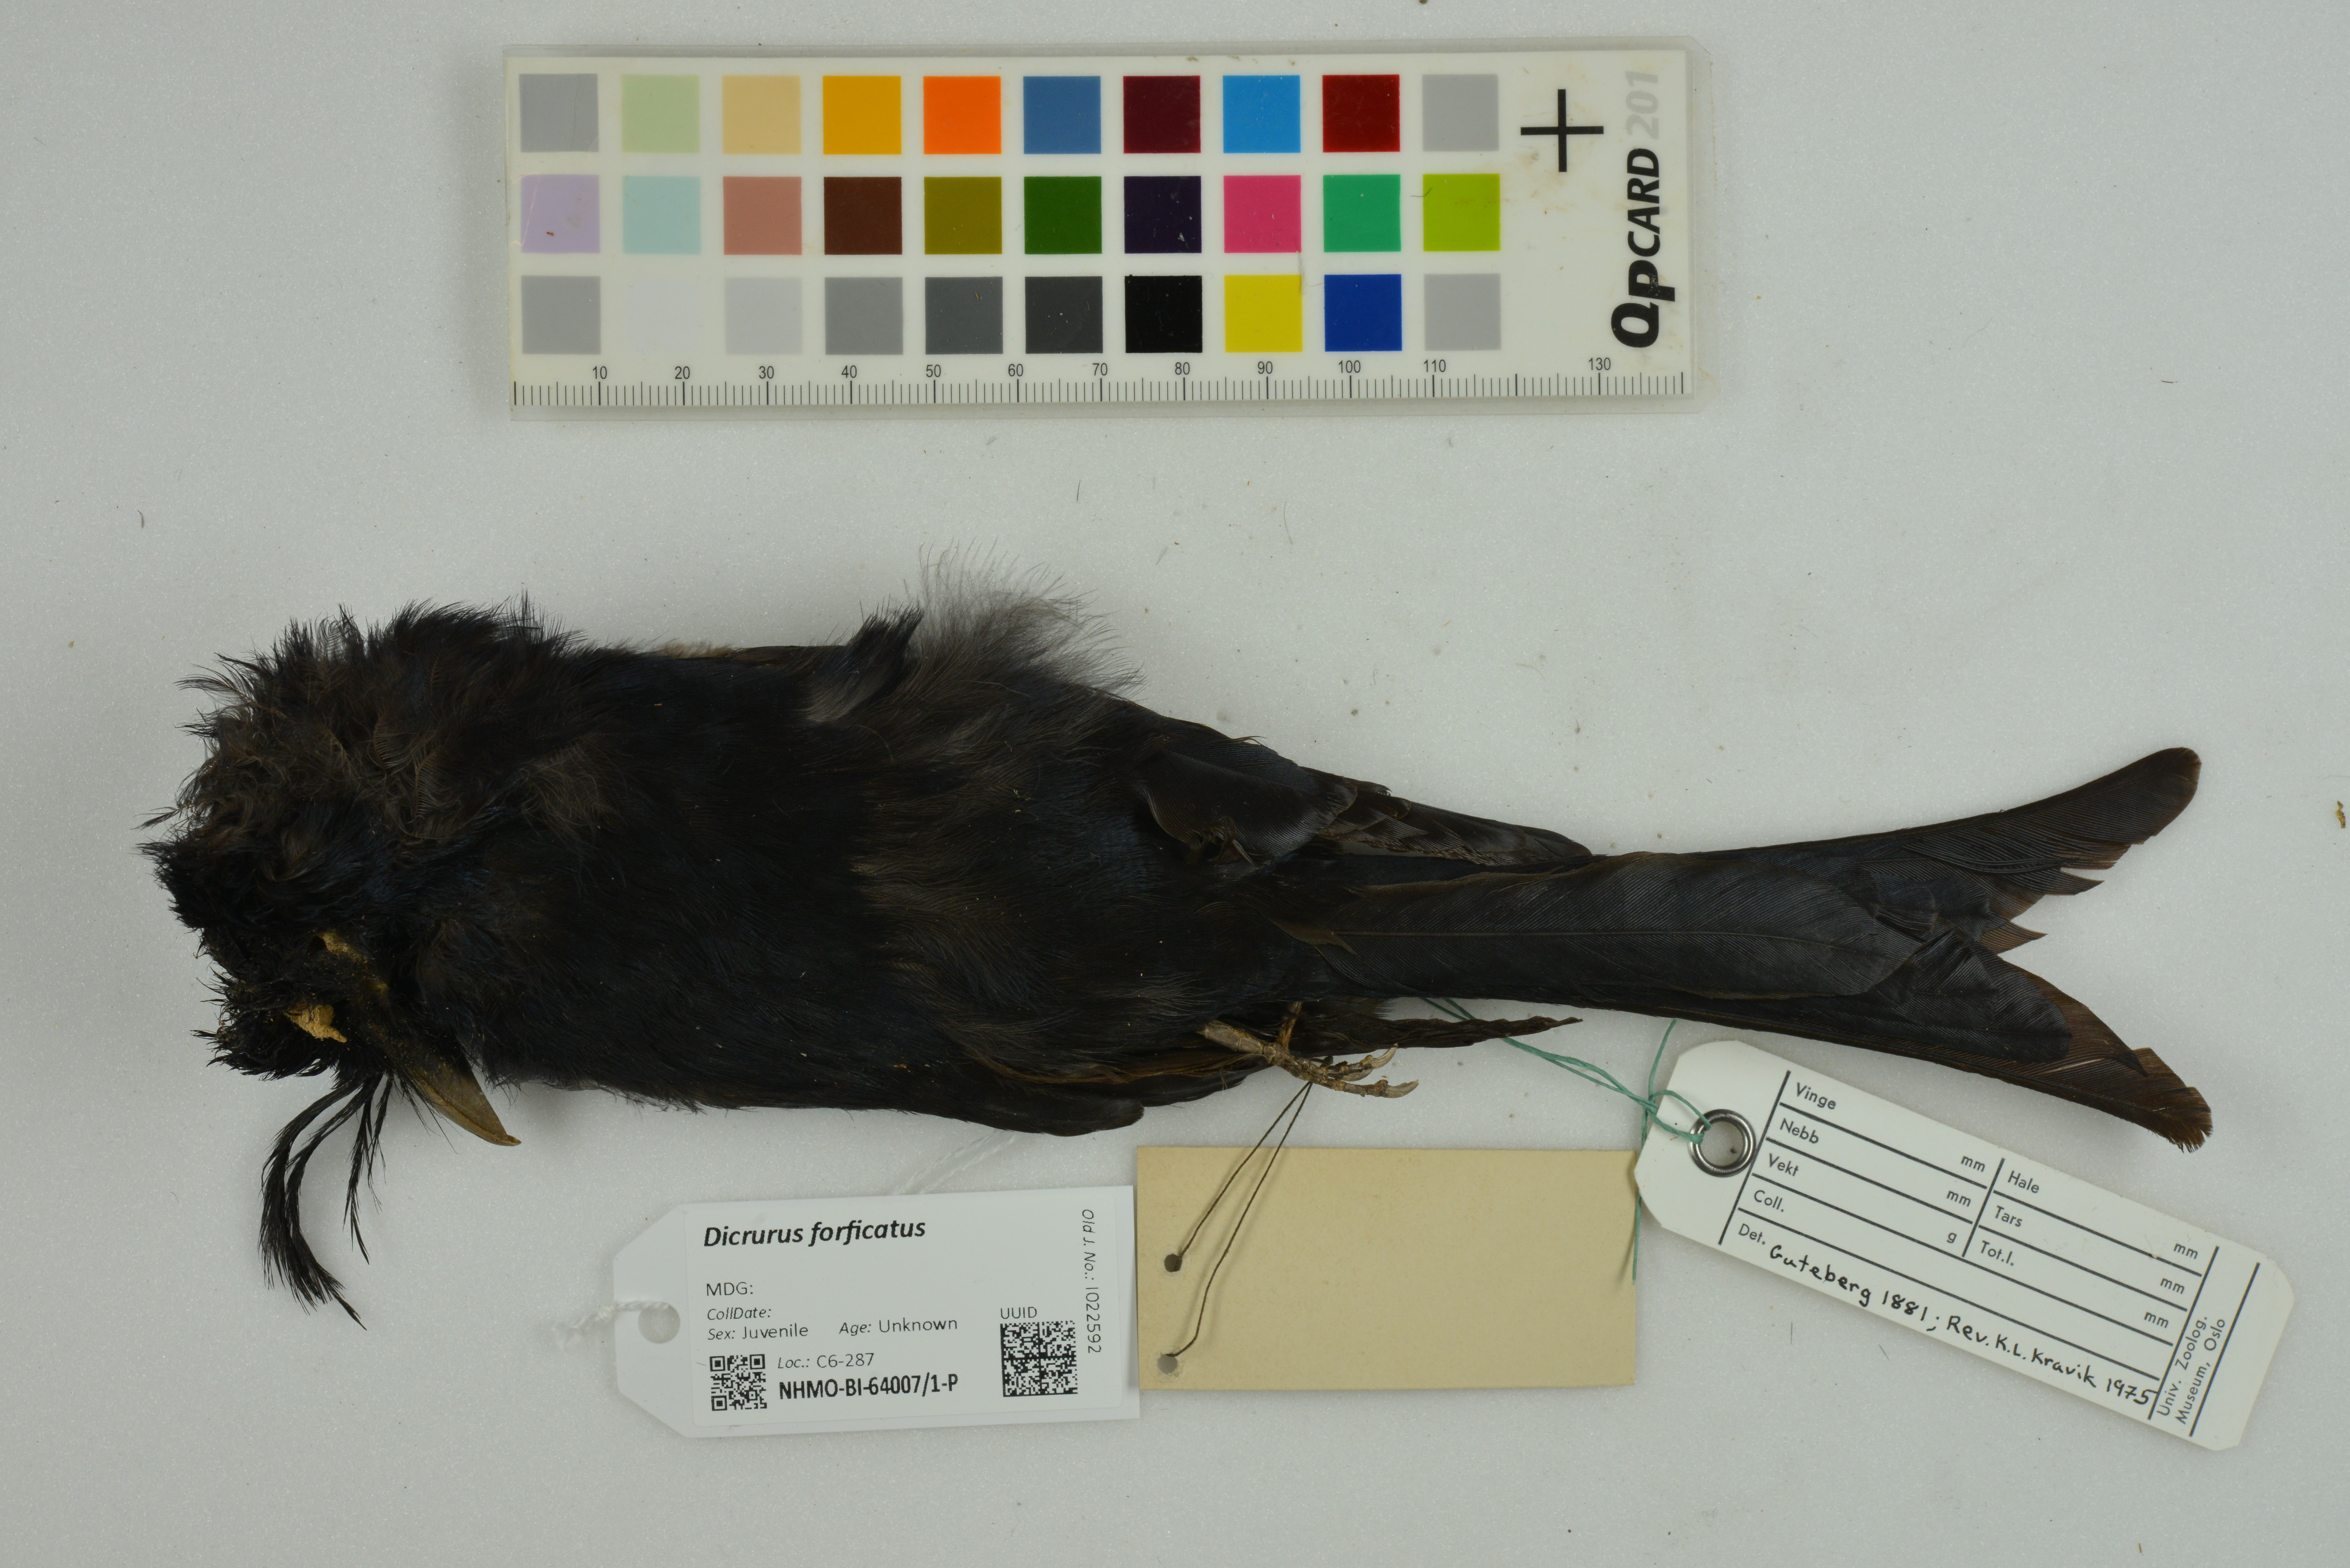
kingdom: Animalia
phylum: Chordata
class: Aves
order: Passeriformes
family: Dicruridae
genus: Dicrurus
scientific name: Dicrurus forficatus
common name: Crested drongo
